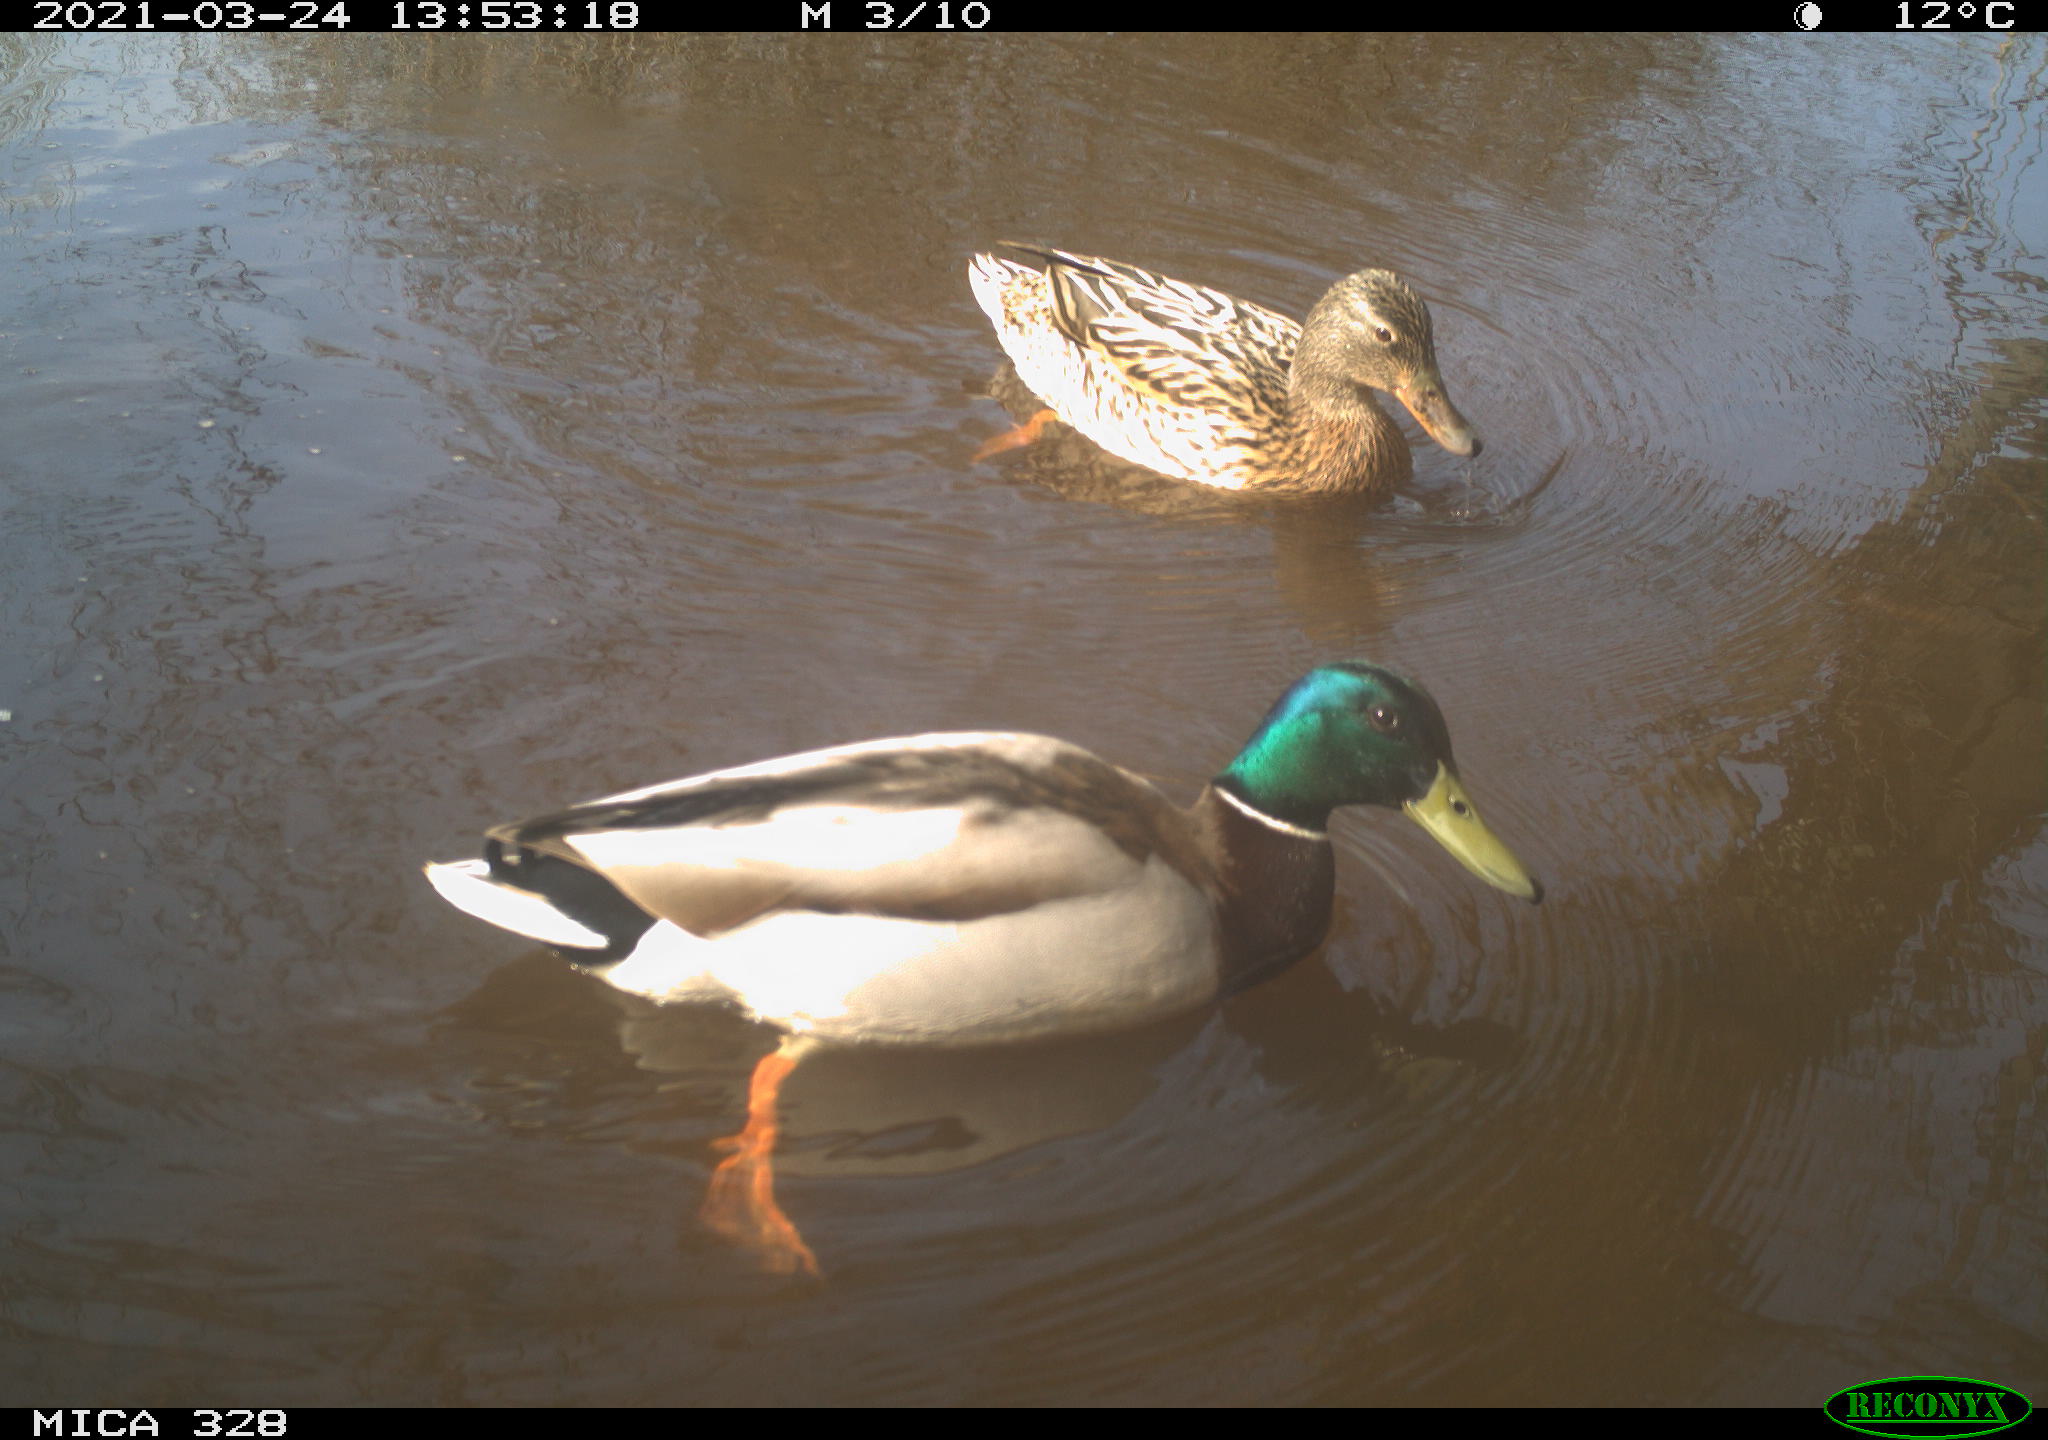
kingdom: Animalia
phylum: Chordata
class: Aves
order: Anseriformes
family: Anatidae
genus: Anas
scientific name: Anas platyrhynchos
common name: Mallard
